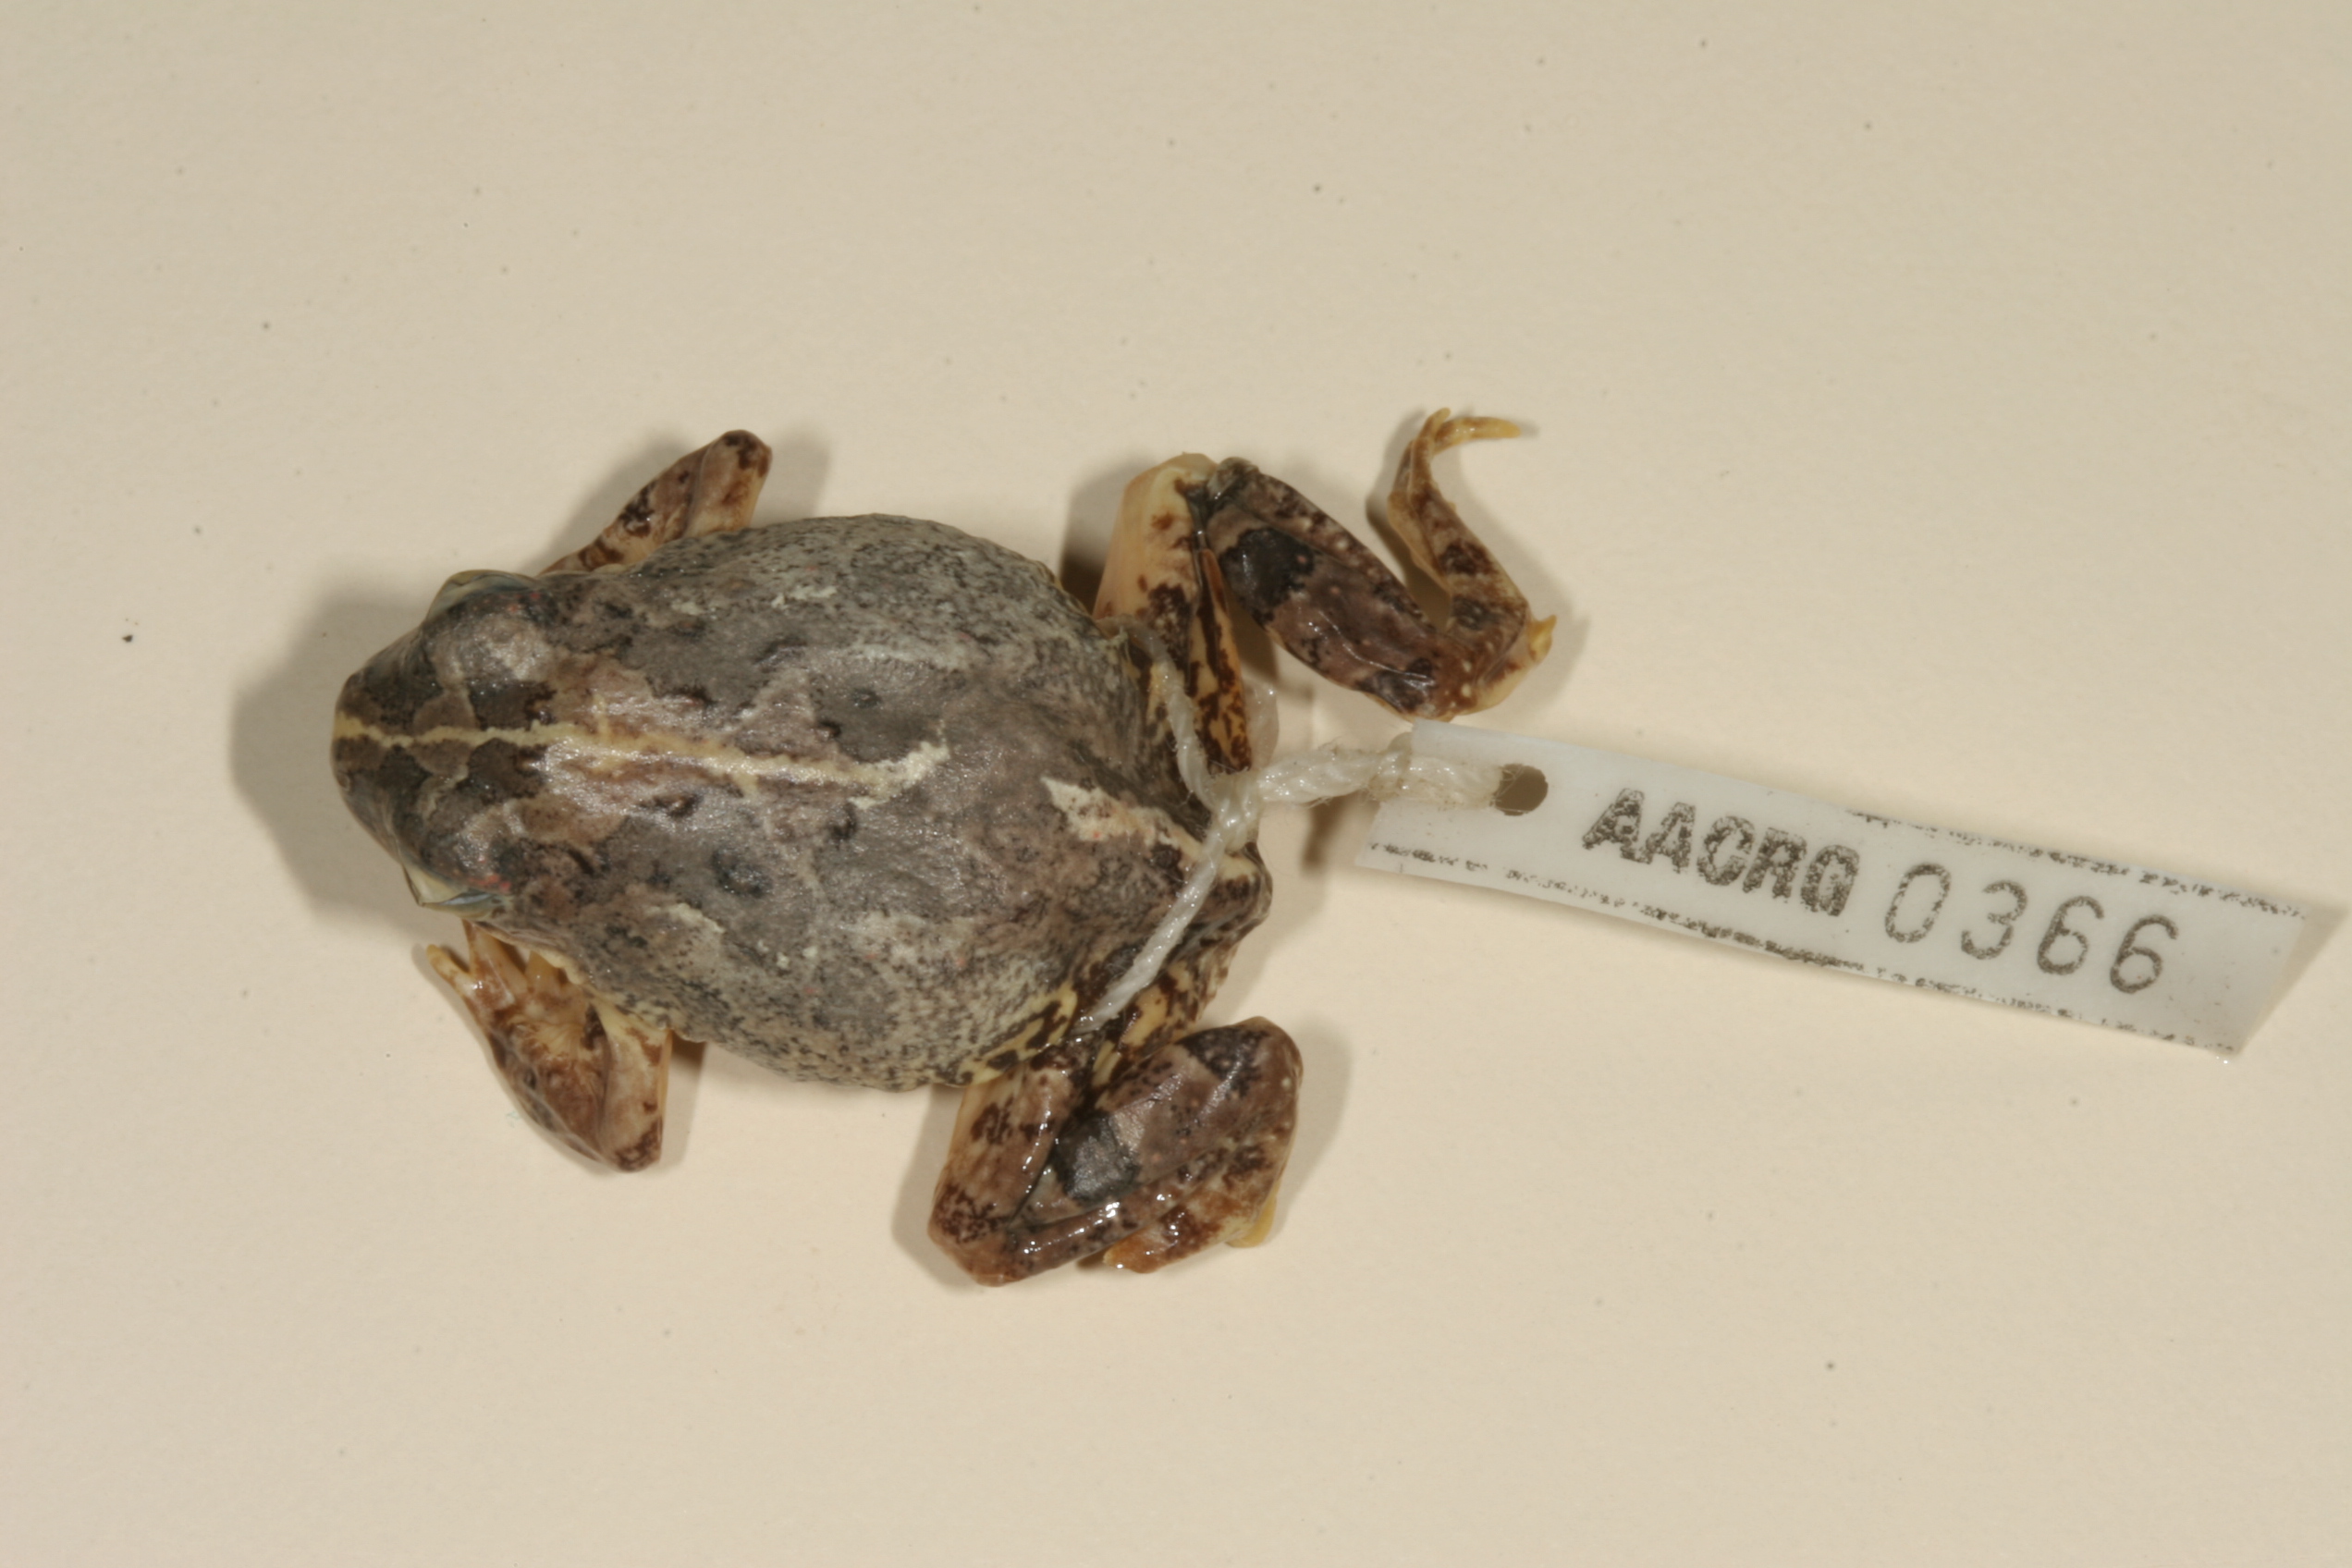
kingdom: Animalia
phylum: Chordata
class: Amphibia
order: Anura
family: Pyxicephalidae
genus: Tomopterna
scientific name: Tomopterna cryptotis
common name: Catequero bullfrog
